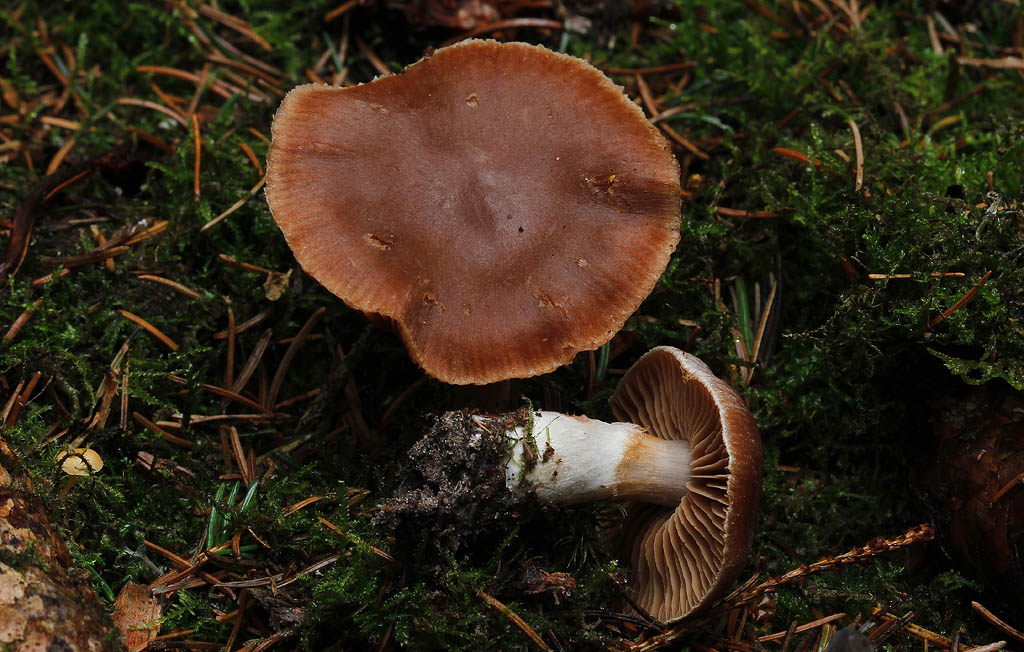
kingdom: Fungi
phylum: Basidiomycota
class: Agaricomycetes
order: Agaricales
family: Cortinariaceae
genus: Cortinarius
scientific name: Cortinarius dolabratus
